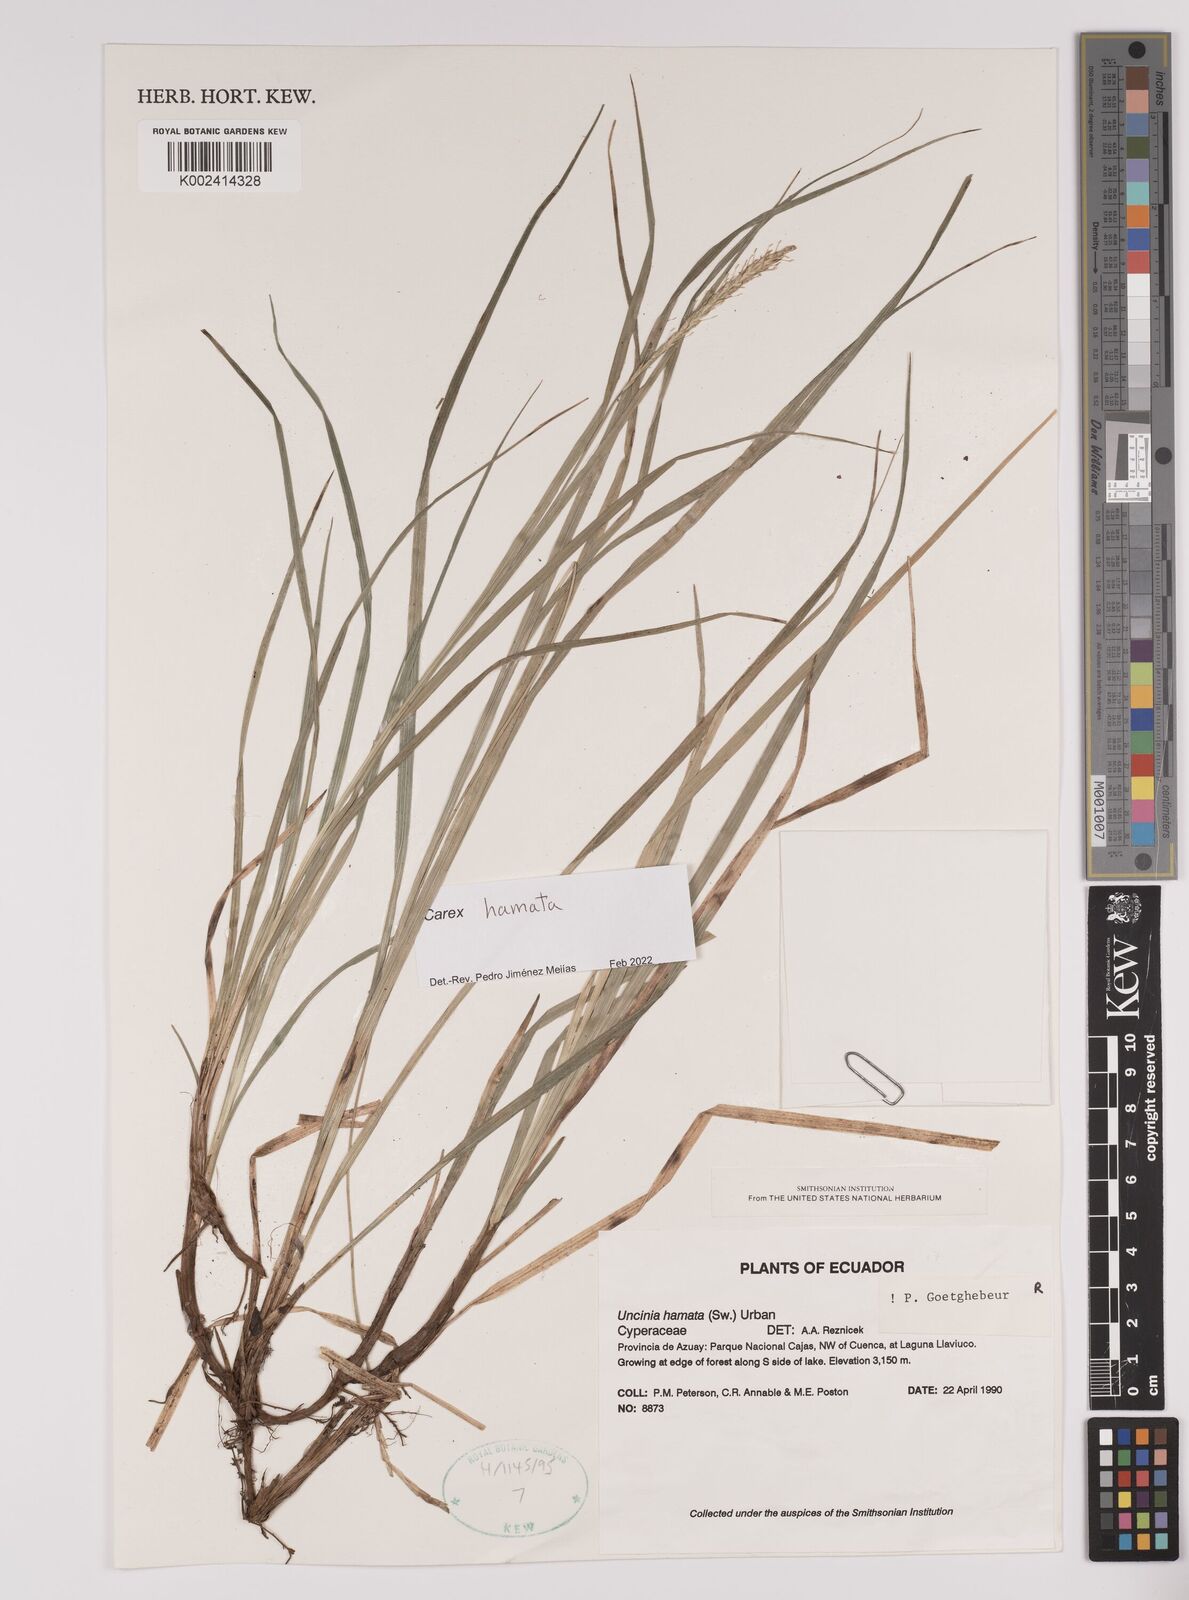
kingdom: Plantae
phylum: Tracheophyta
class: Liliopsida
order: Poales
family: Cyperaceae
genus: Carex
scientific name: Carex hamata
